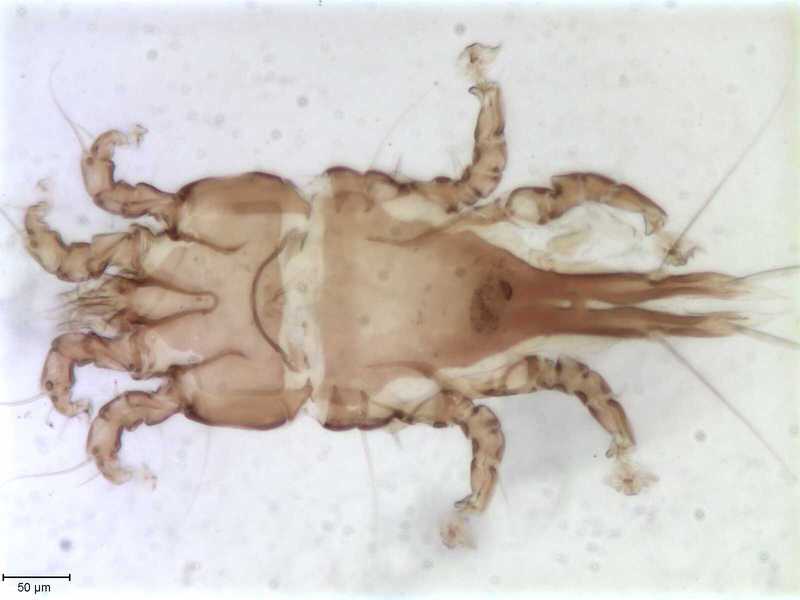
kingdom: Animalia
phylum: Arthropoda
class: Arachnida
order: Sarcoptiformes
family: Trouessartiidae
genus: Neocalcealges
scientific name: Neocalcealges
